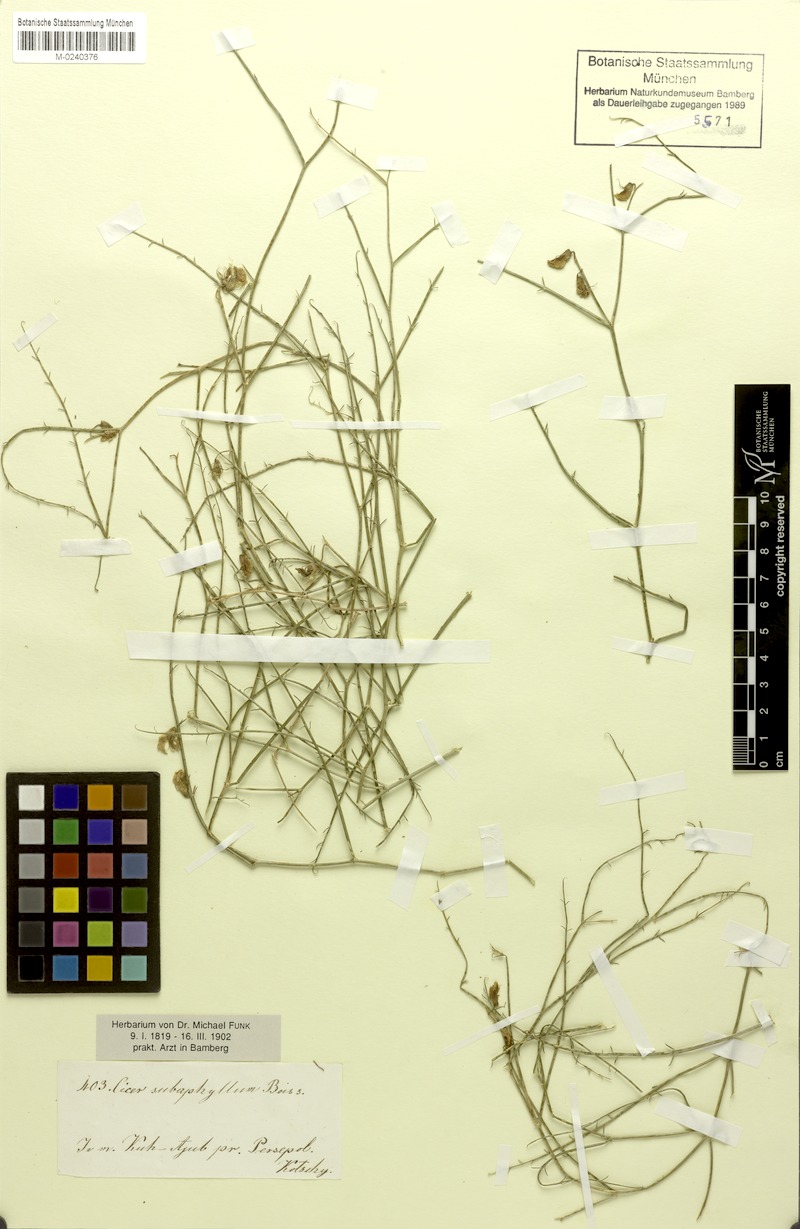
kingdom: Plantae
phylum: Tracheophyta
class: Magnoliopsida
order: Fabales
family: Fabaceae
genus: Cicer
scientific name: Cicer subaphyllum
